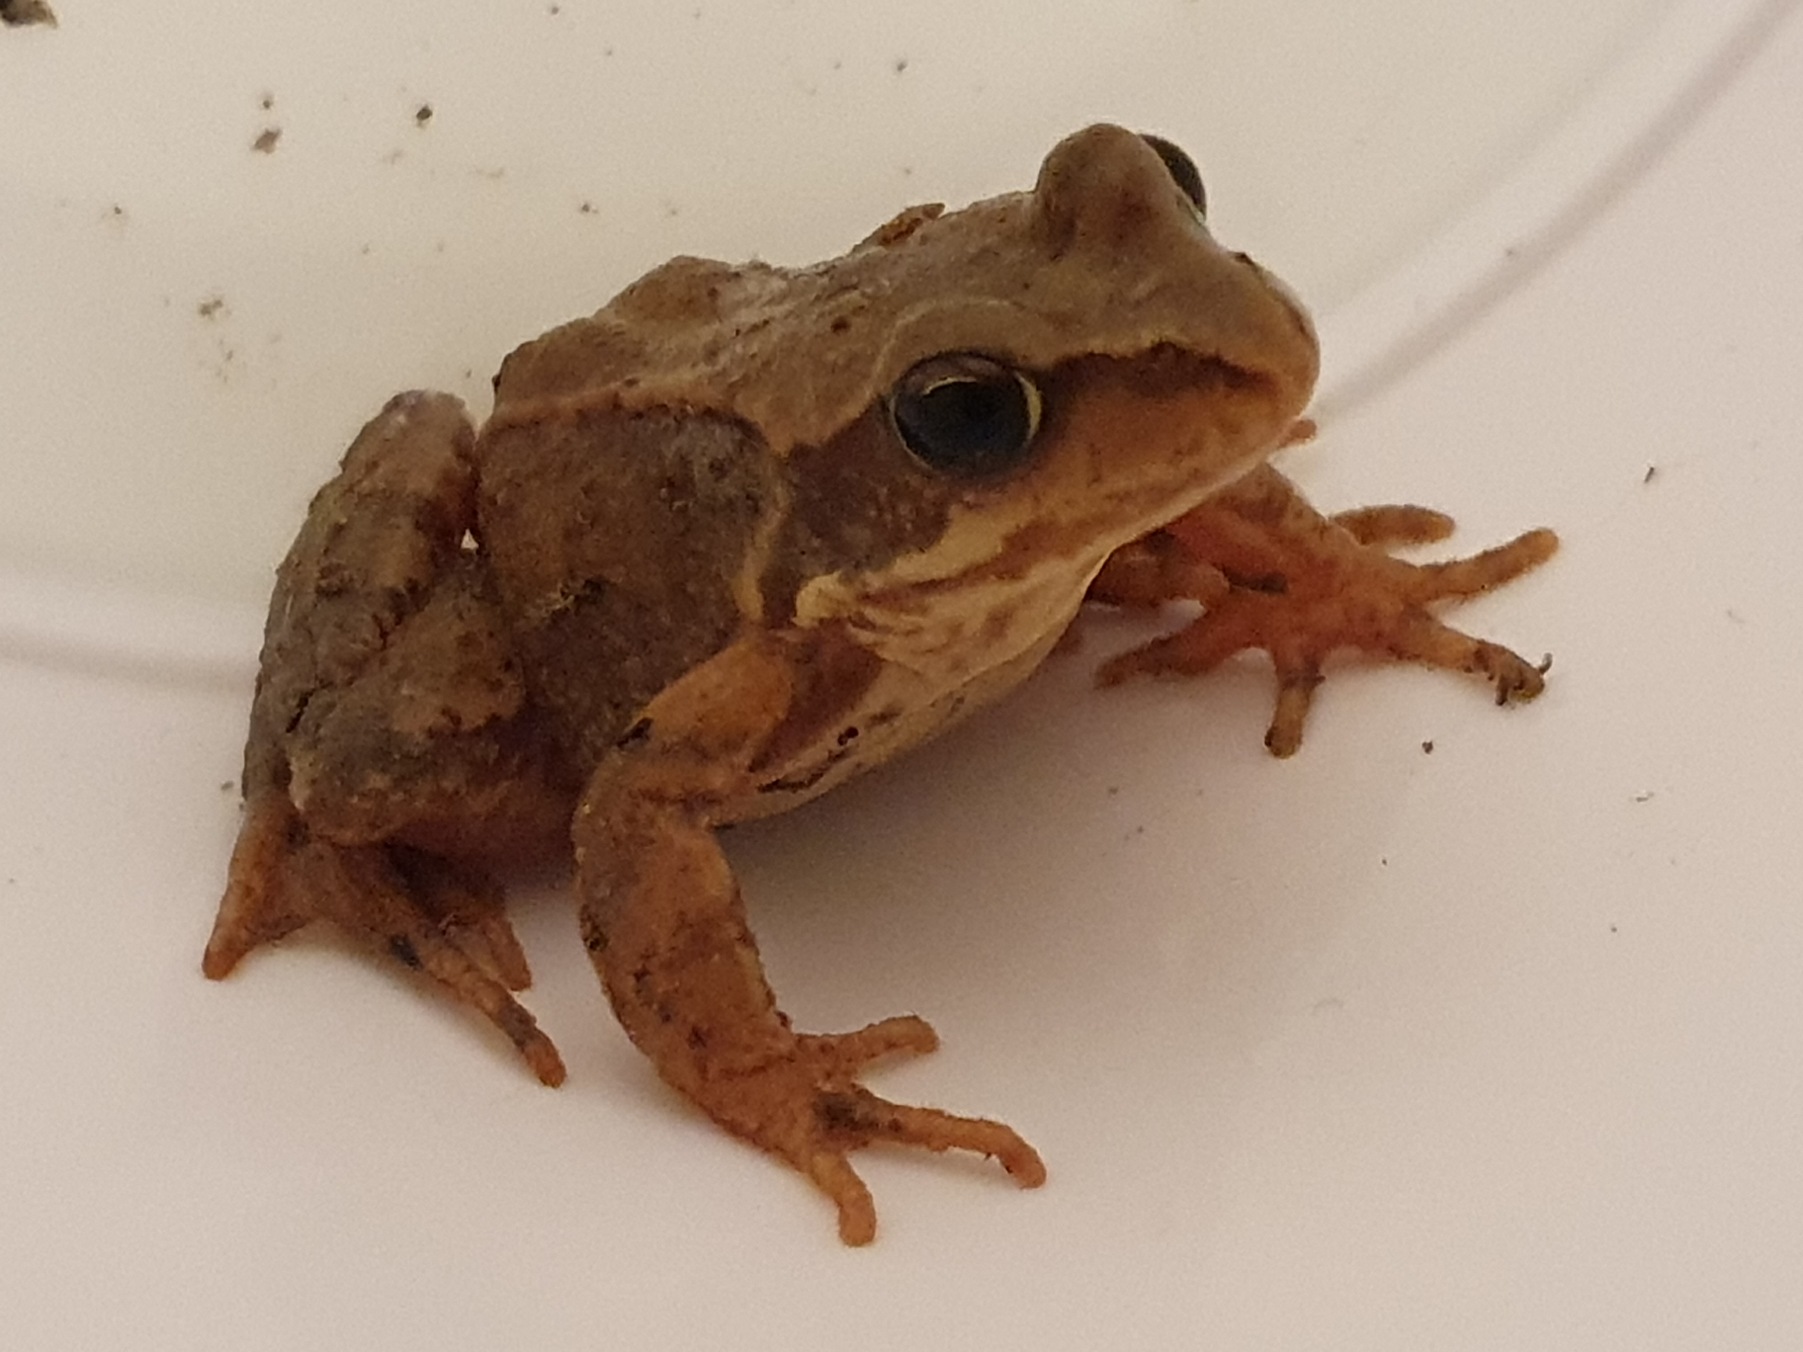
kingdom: Animalia
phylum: Chordata
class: Amphibia
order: Anura
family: Ranidae
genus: Rana
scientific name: Rana temporaria
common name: Butsnudet frø
